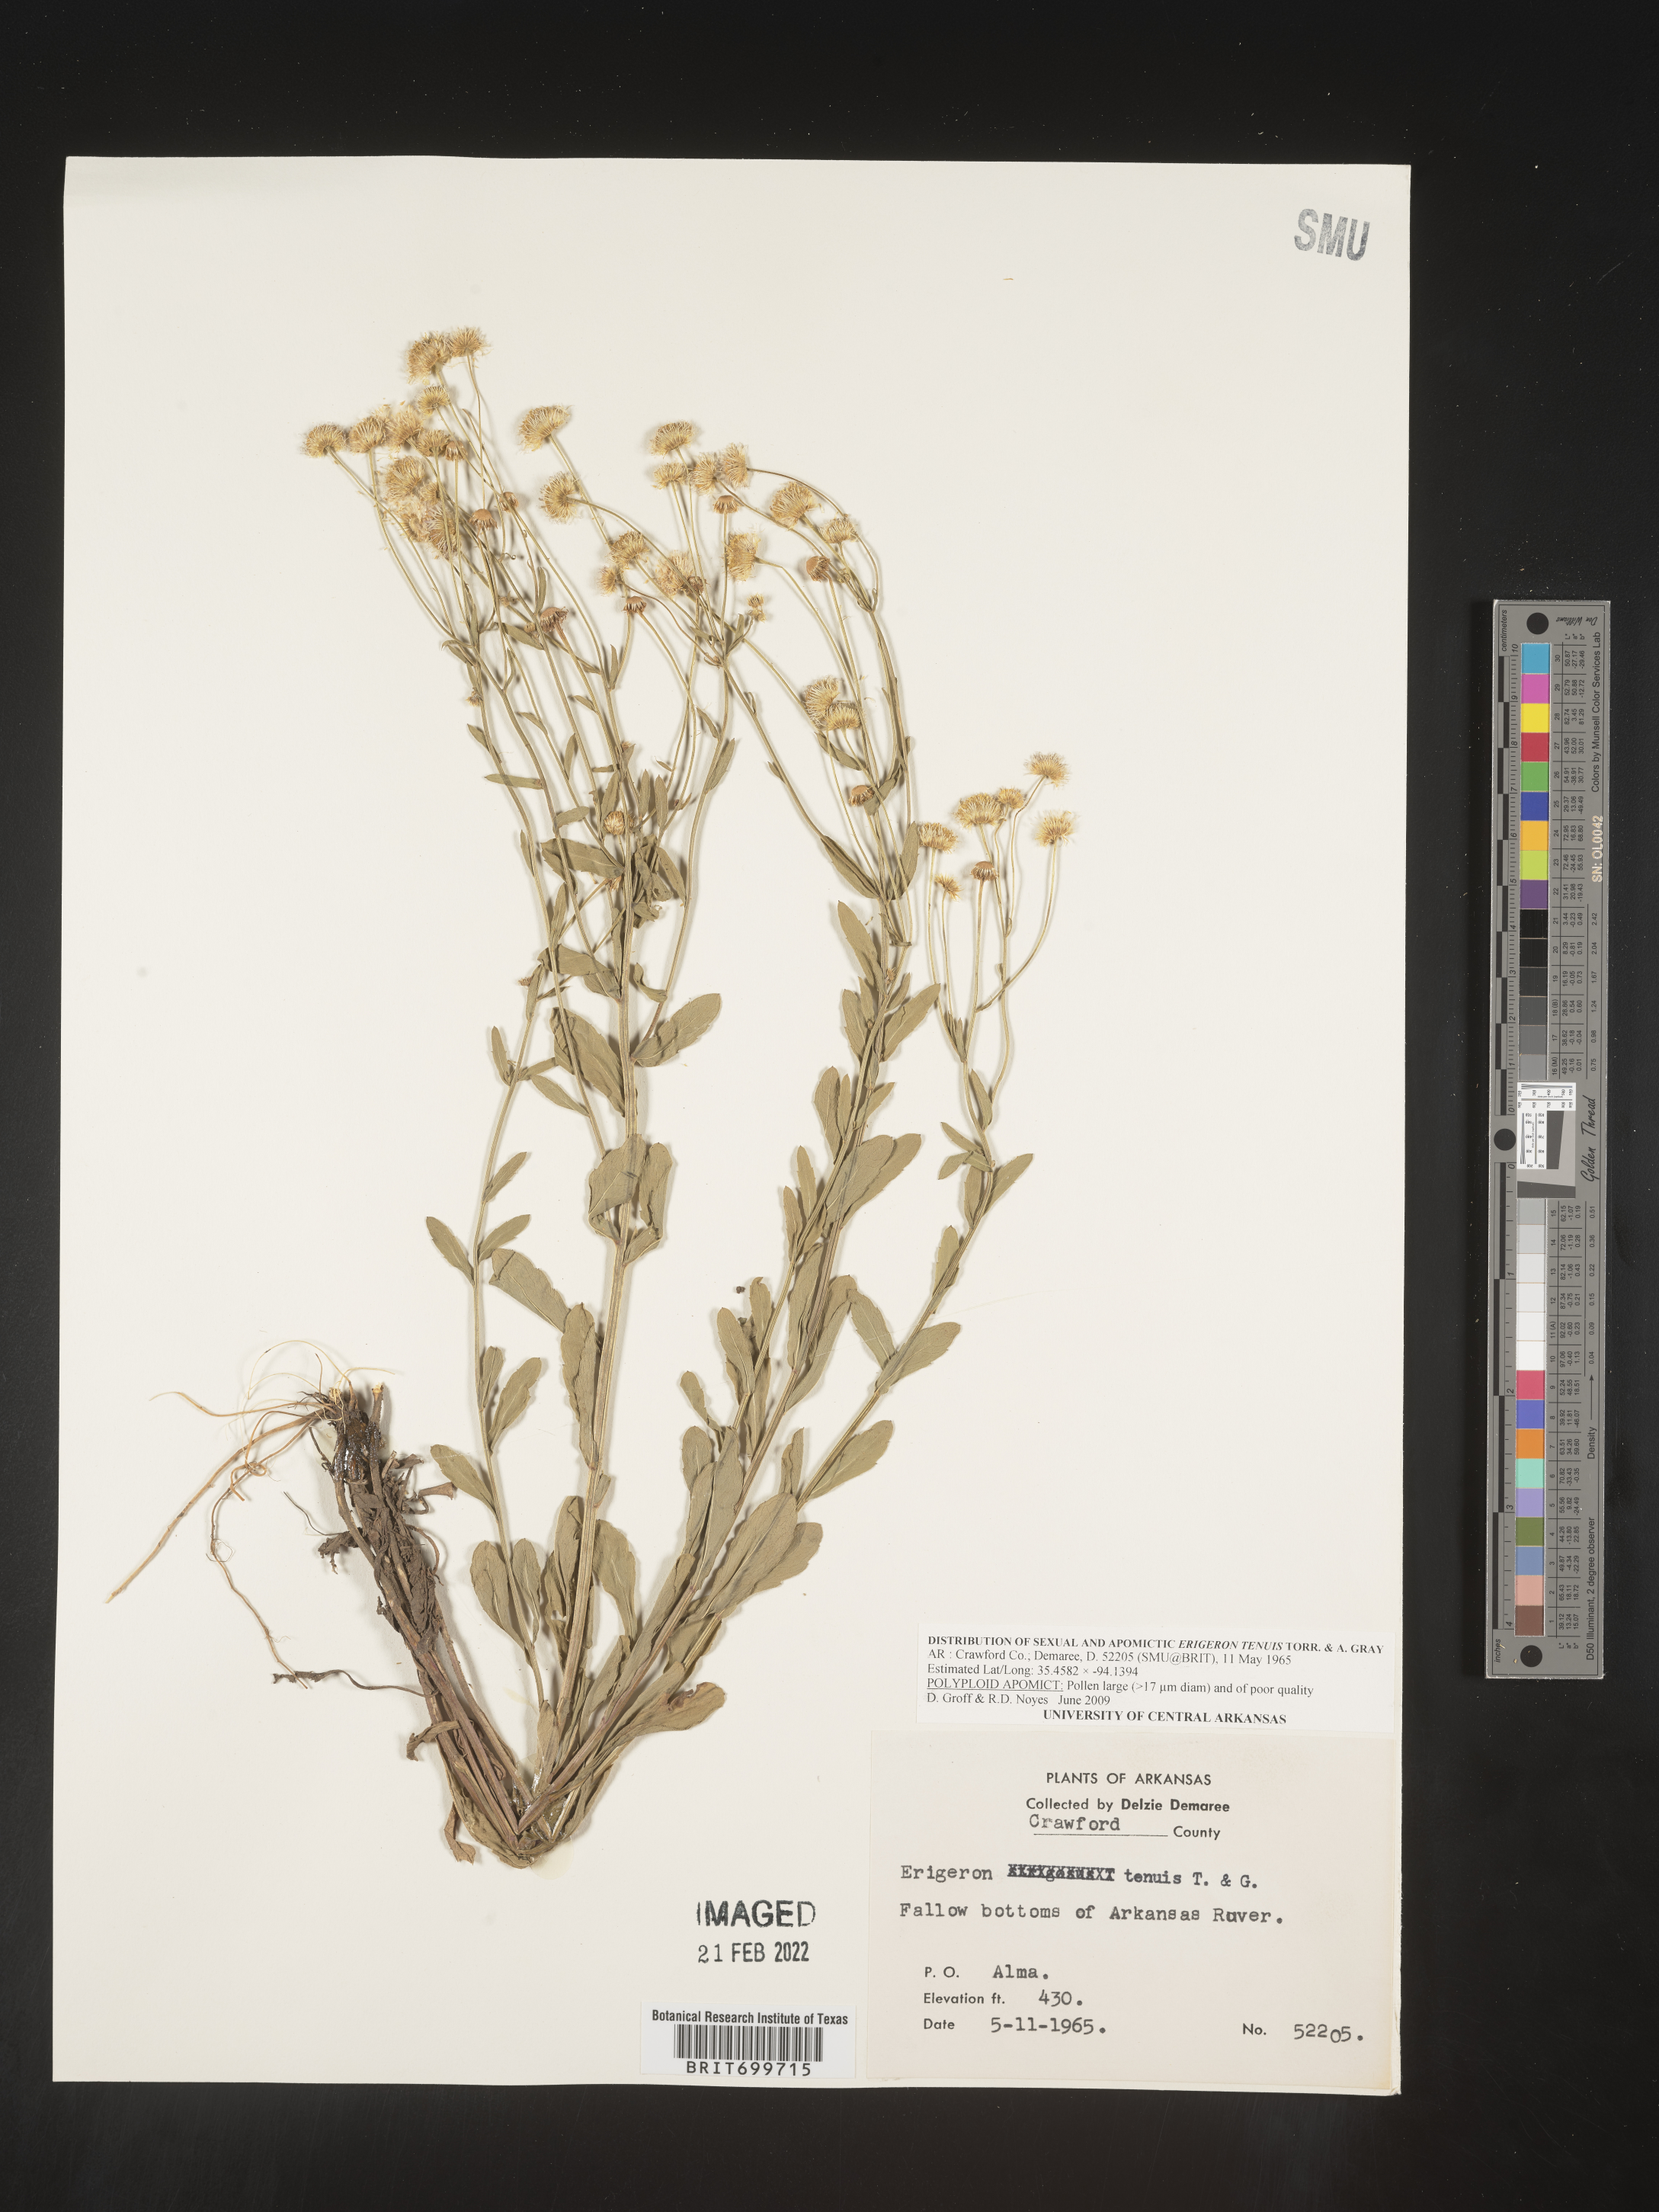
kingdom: Plantae
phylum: Tracheophyta
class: Magnoliopsida
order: Asterales
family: Asteraceae
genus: Erigeron
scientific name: Erigeron tenuis
